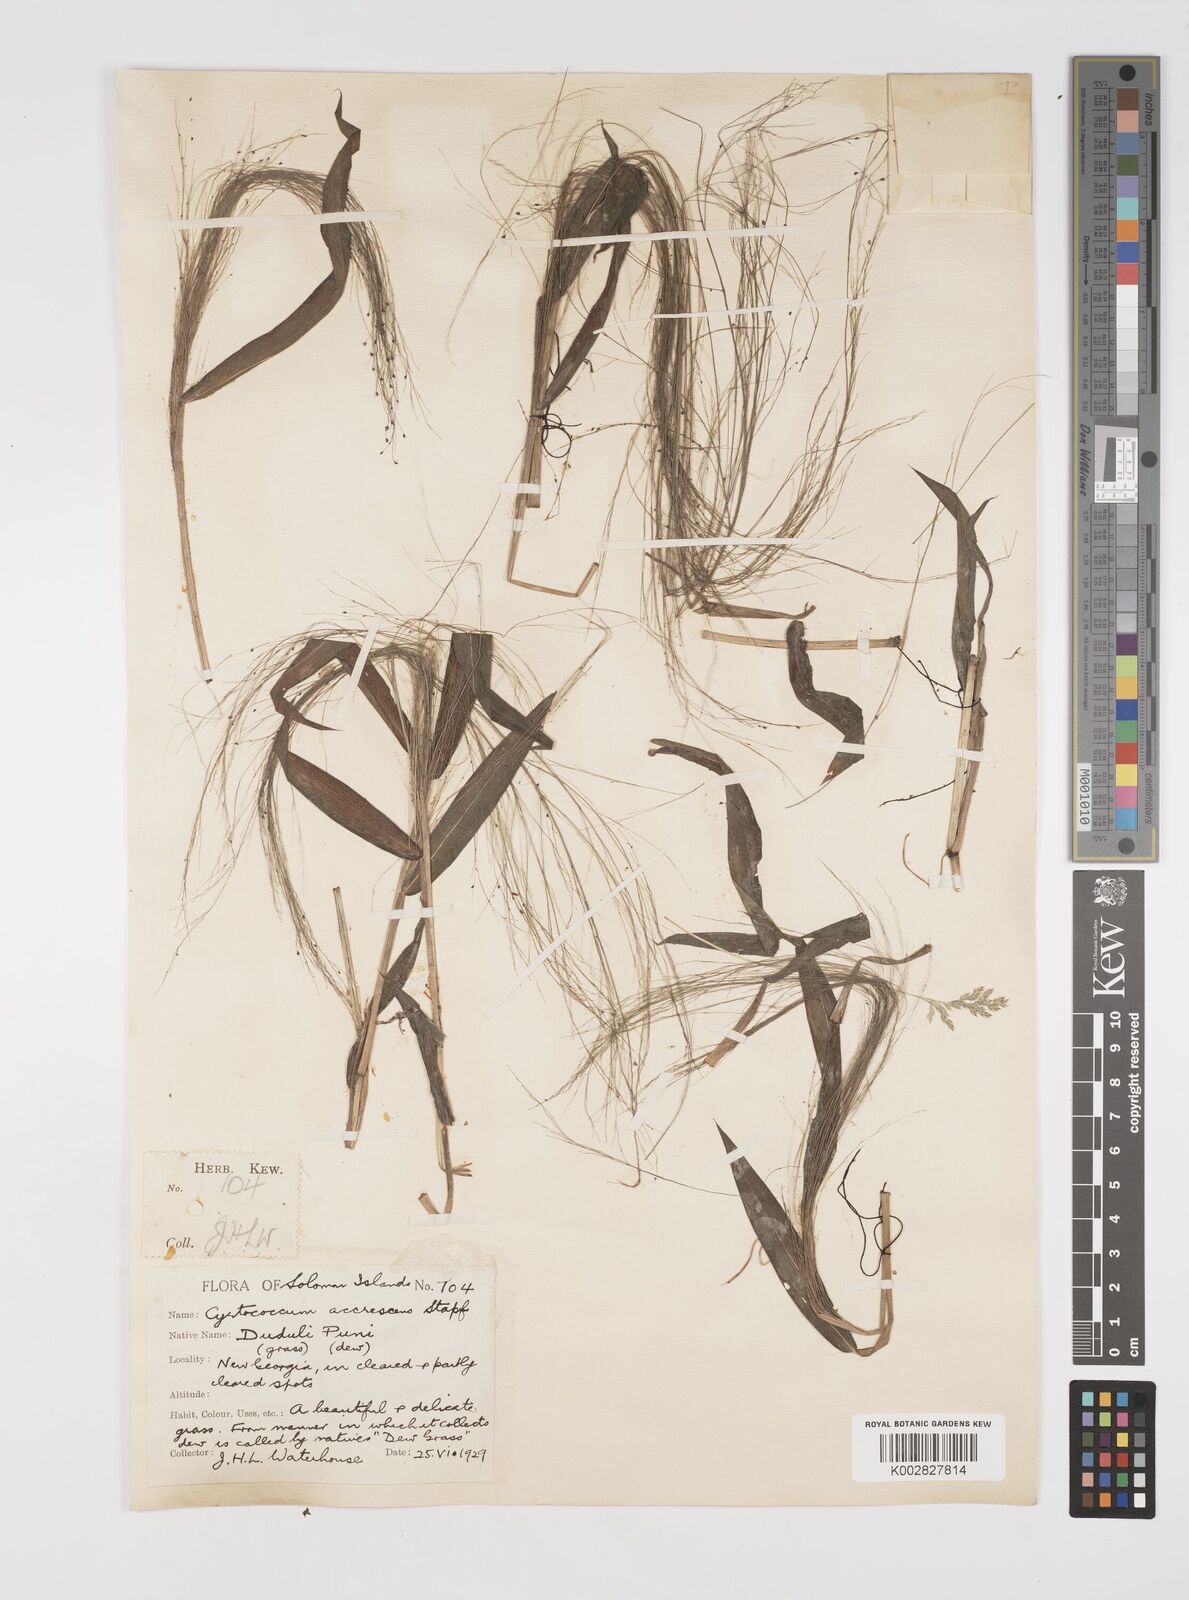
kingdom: Plantae
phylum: Tracheophyta
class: Liliopsida
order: Poales
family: Poaceae
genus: Cyrtococcum
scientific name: Cyrtococcum accrescens
